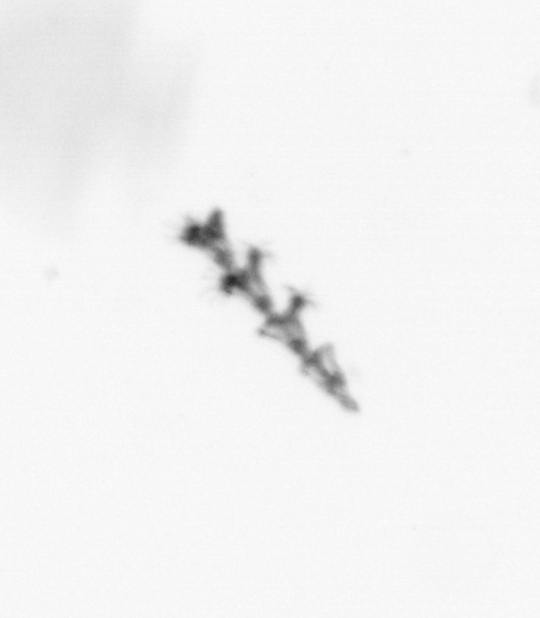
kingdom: Animalia
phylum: Cnidaria
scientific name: Cnidaria
